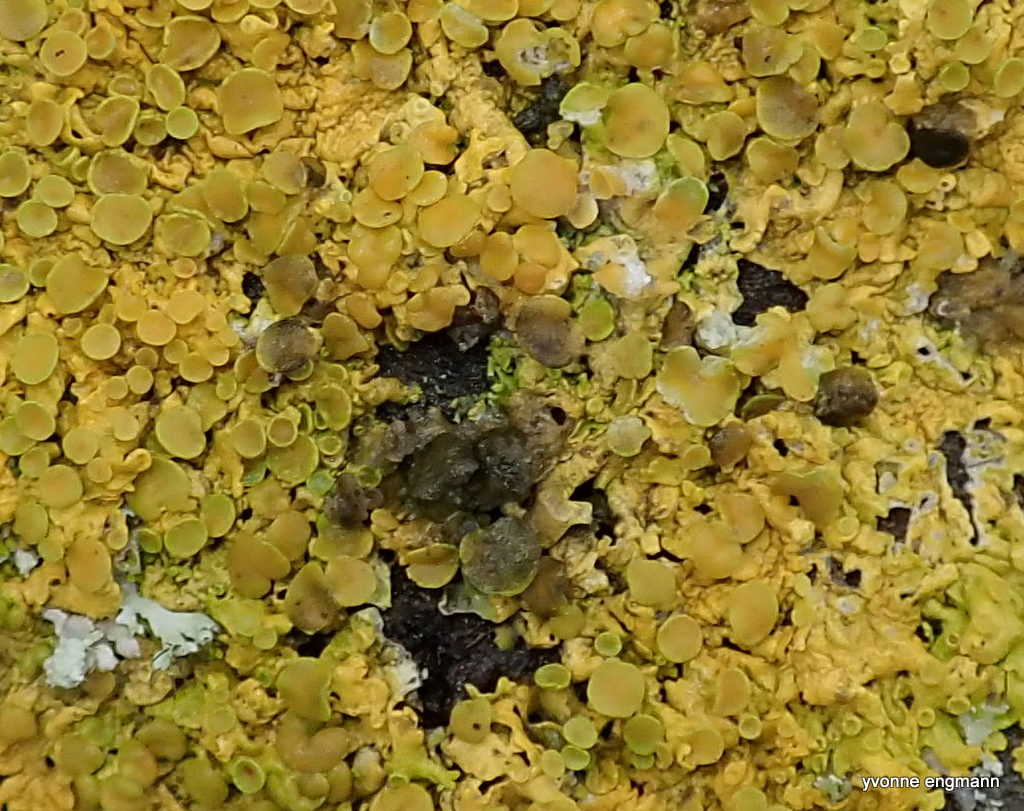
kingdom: Fungi
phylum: Ascomycota
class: Dothideomycetes
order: Mycosphaerellales
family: Teratosphaeriaceae
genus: Xanthoriicola
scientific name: Xanthoriicola physciae
